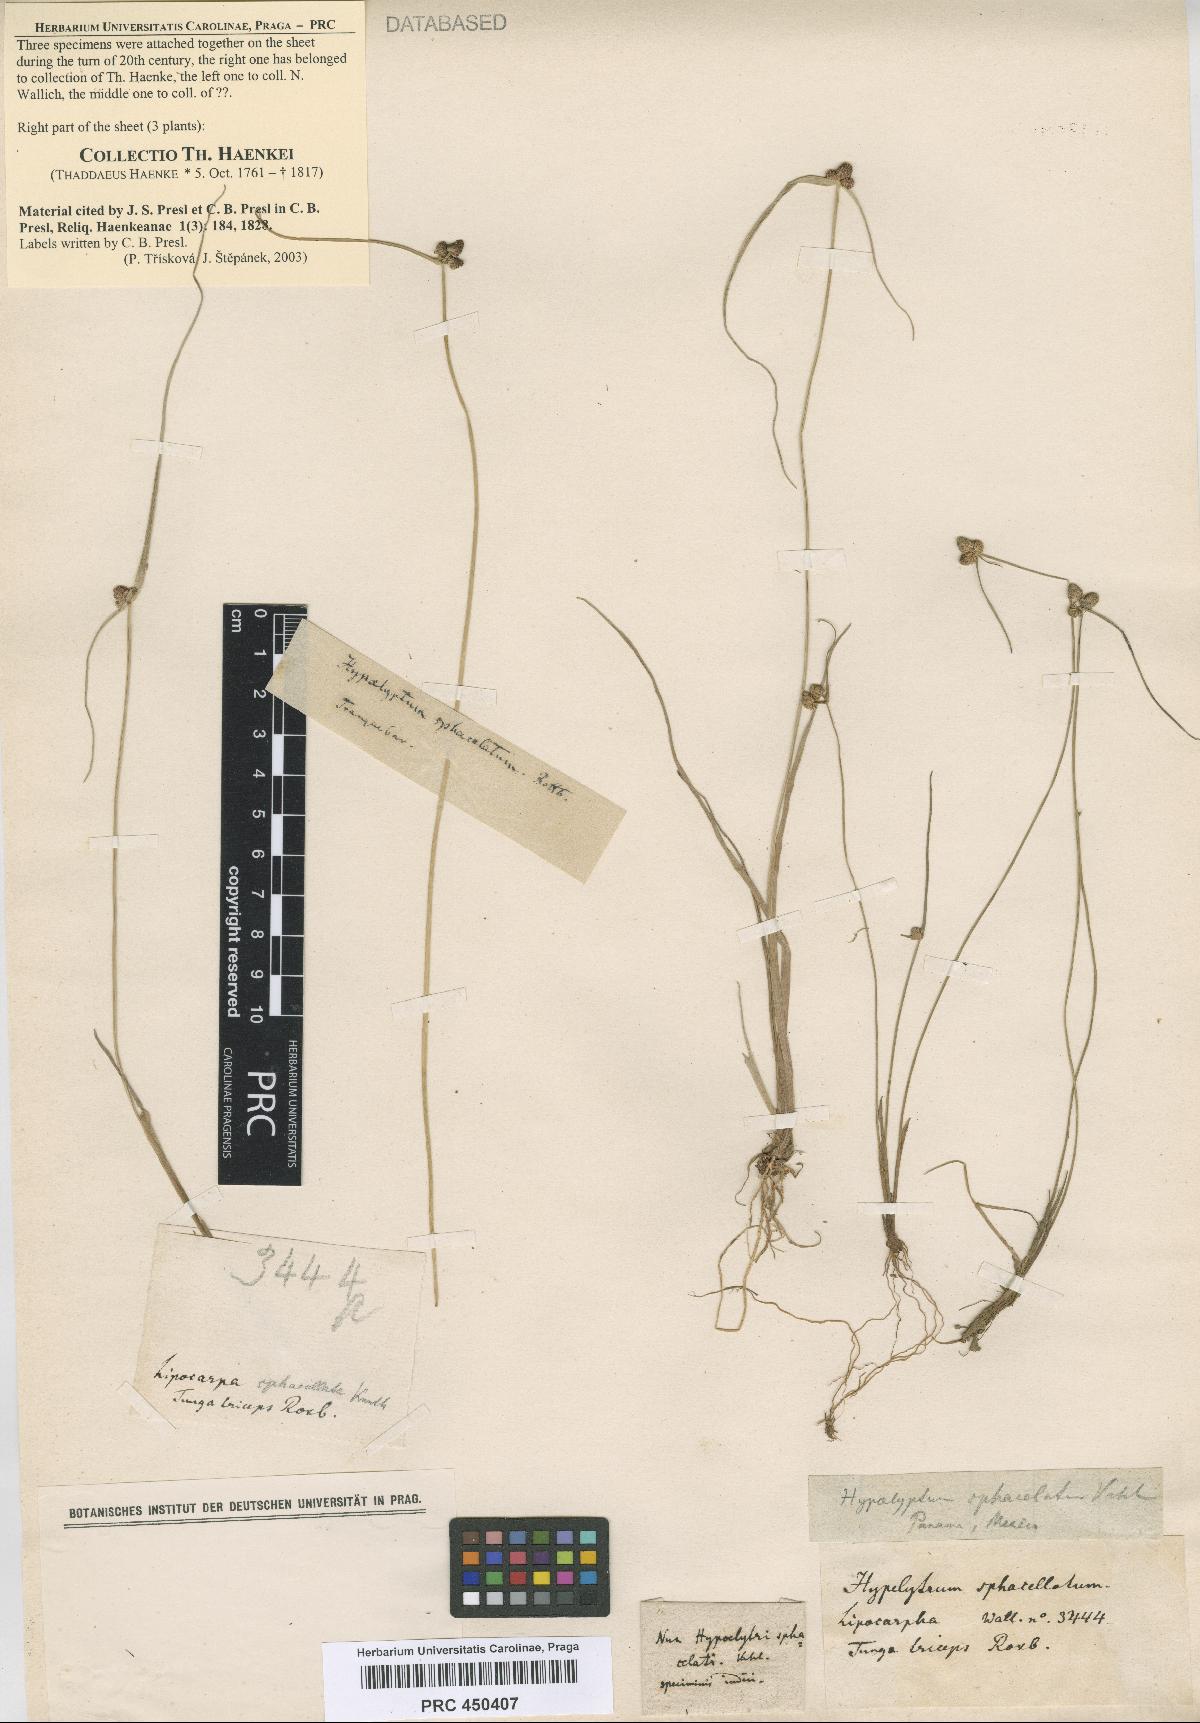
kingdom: Plantae
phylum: Tracheophyta
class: Magnoliopsida
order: Myrtales
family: Melastomataceae
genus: Huberia
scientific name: Huberia ovalifolia
